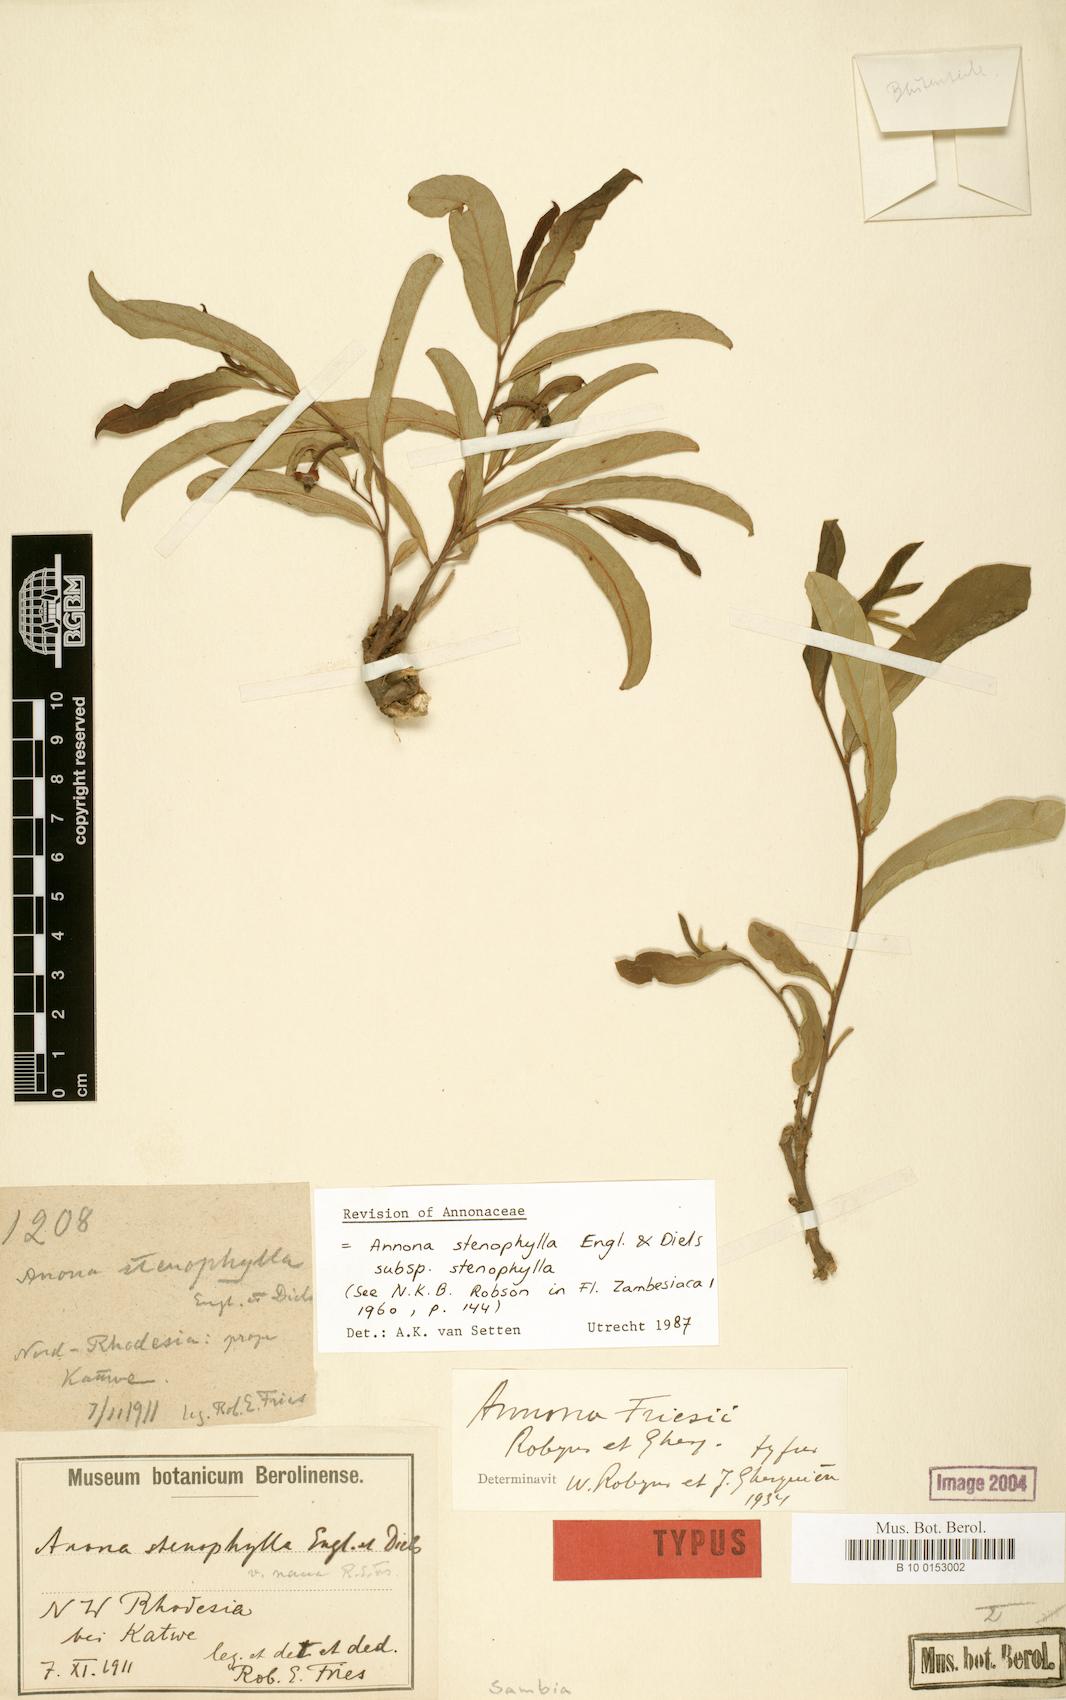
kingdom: Plantae
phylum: Tracheophyta
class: Magnoliopsida
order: Magnoliales
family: Annonaceae
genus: Annona
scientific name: Annona stenophylla
